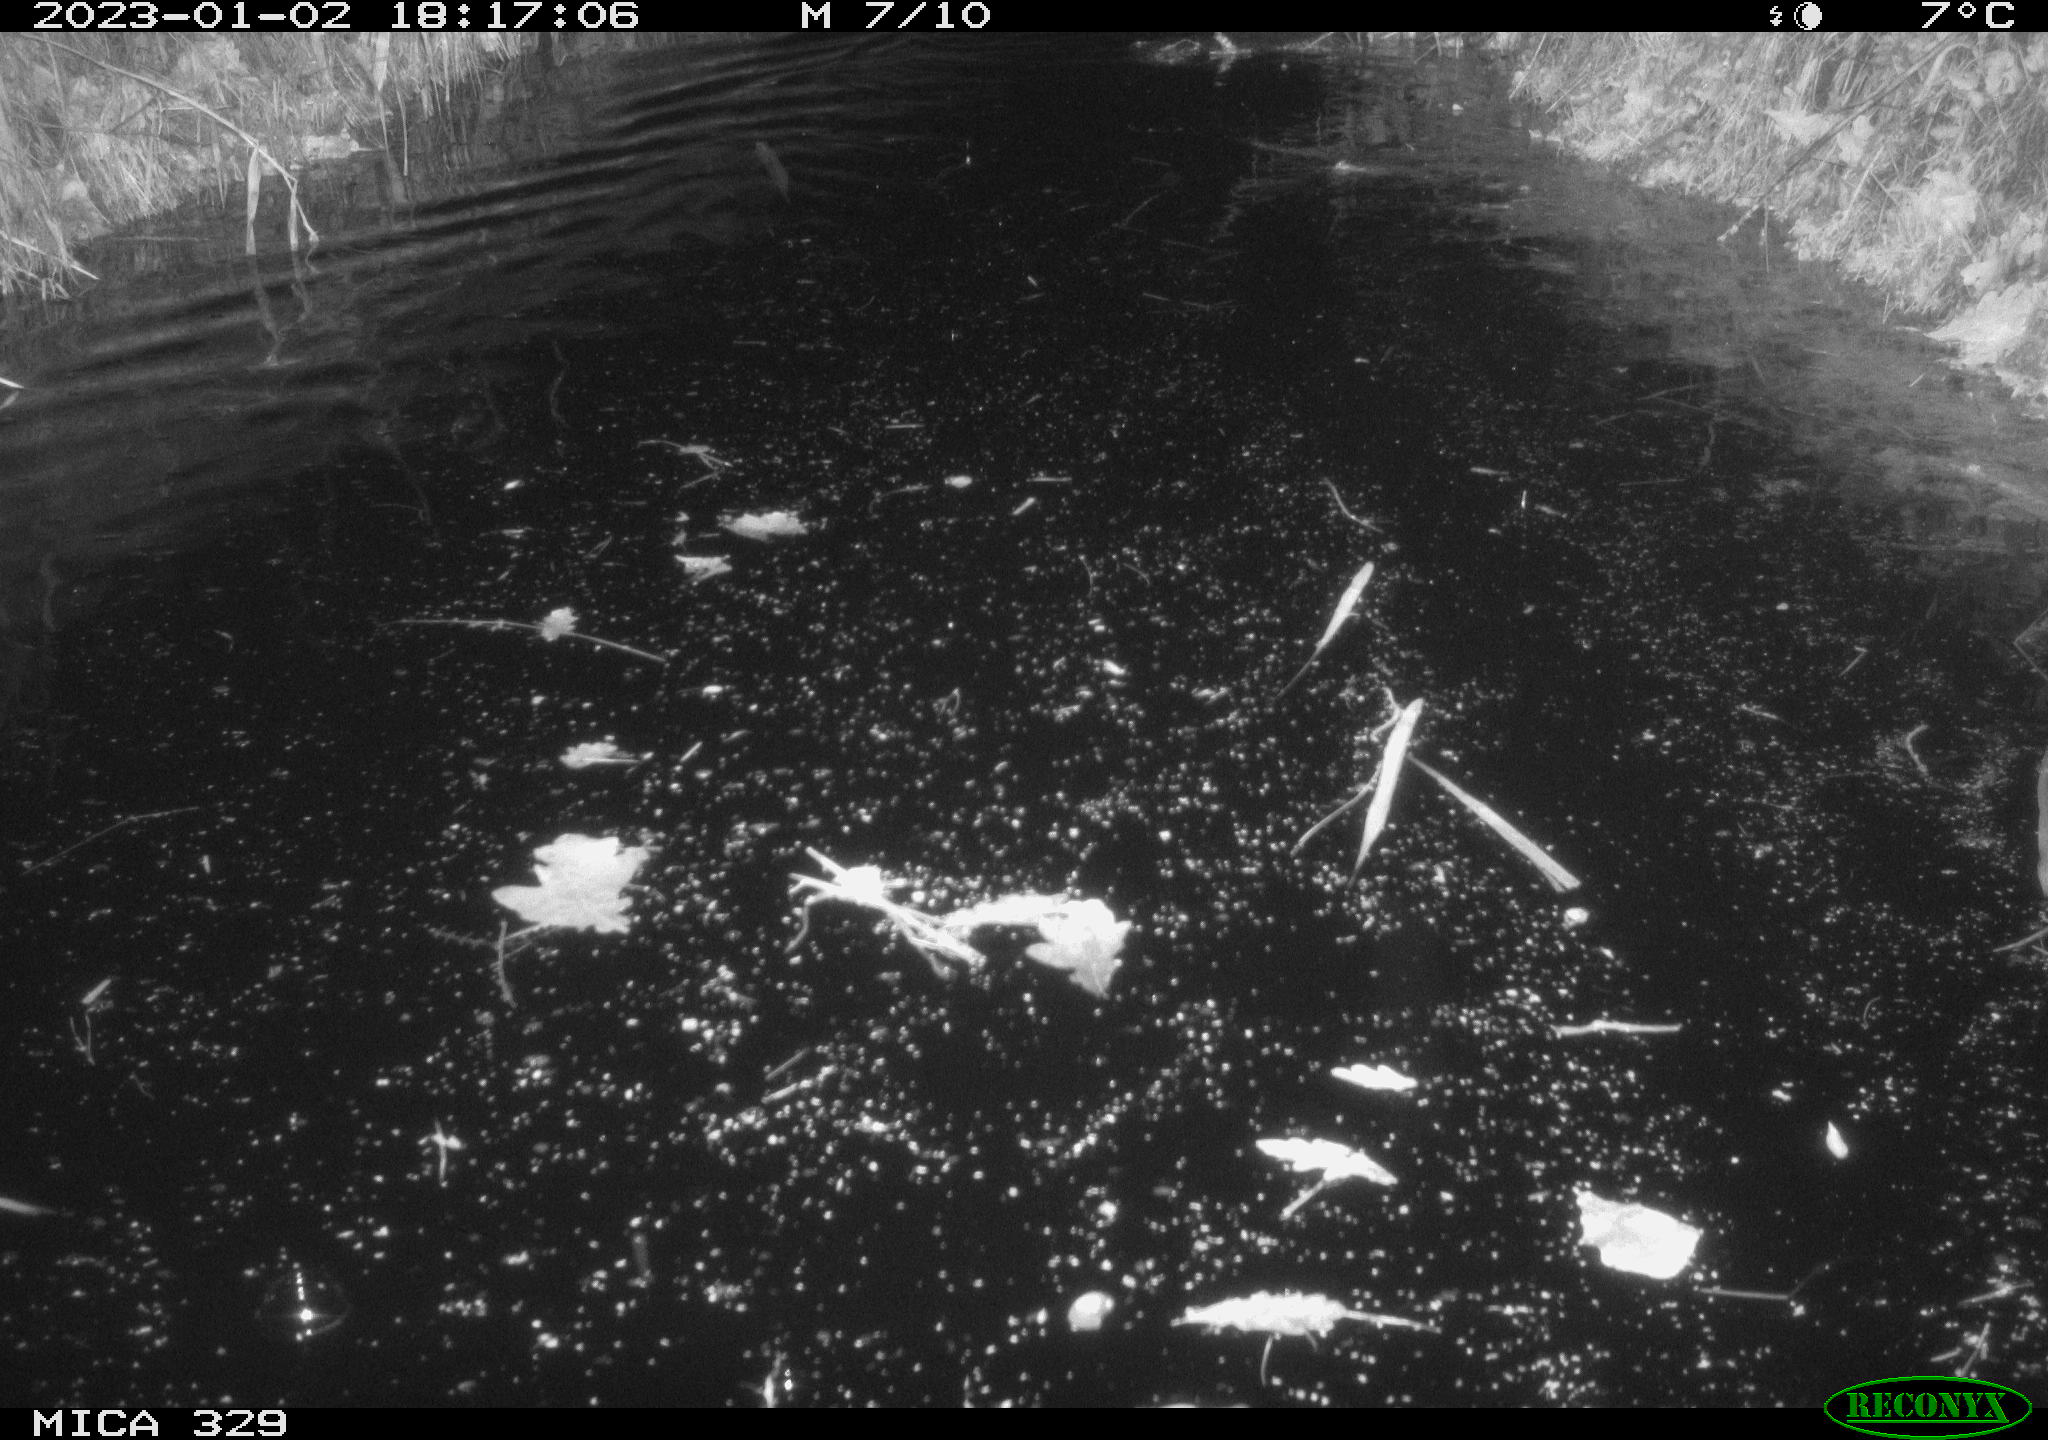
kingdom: Animalia
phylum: Chordata
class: Mammalia
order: Rodentia
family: Cricetidae
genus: Ondatra
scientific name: Ondatra zibethicus
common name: Muskrat
